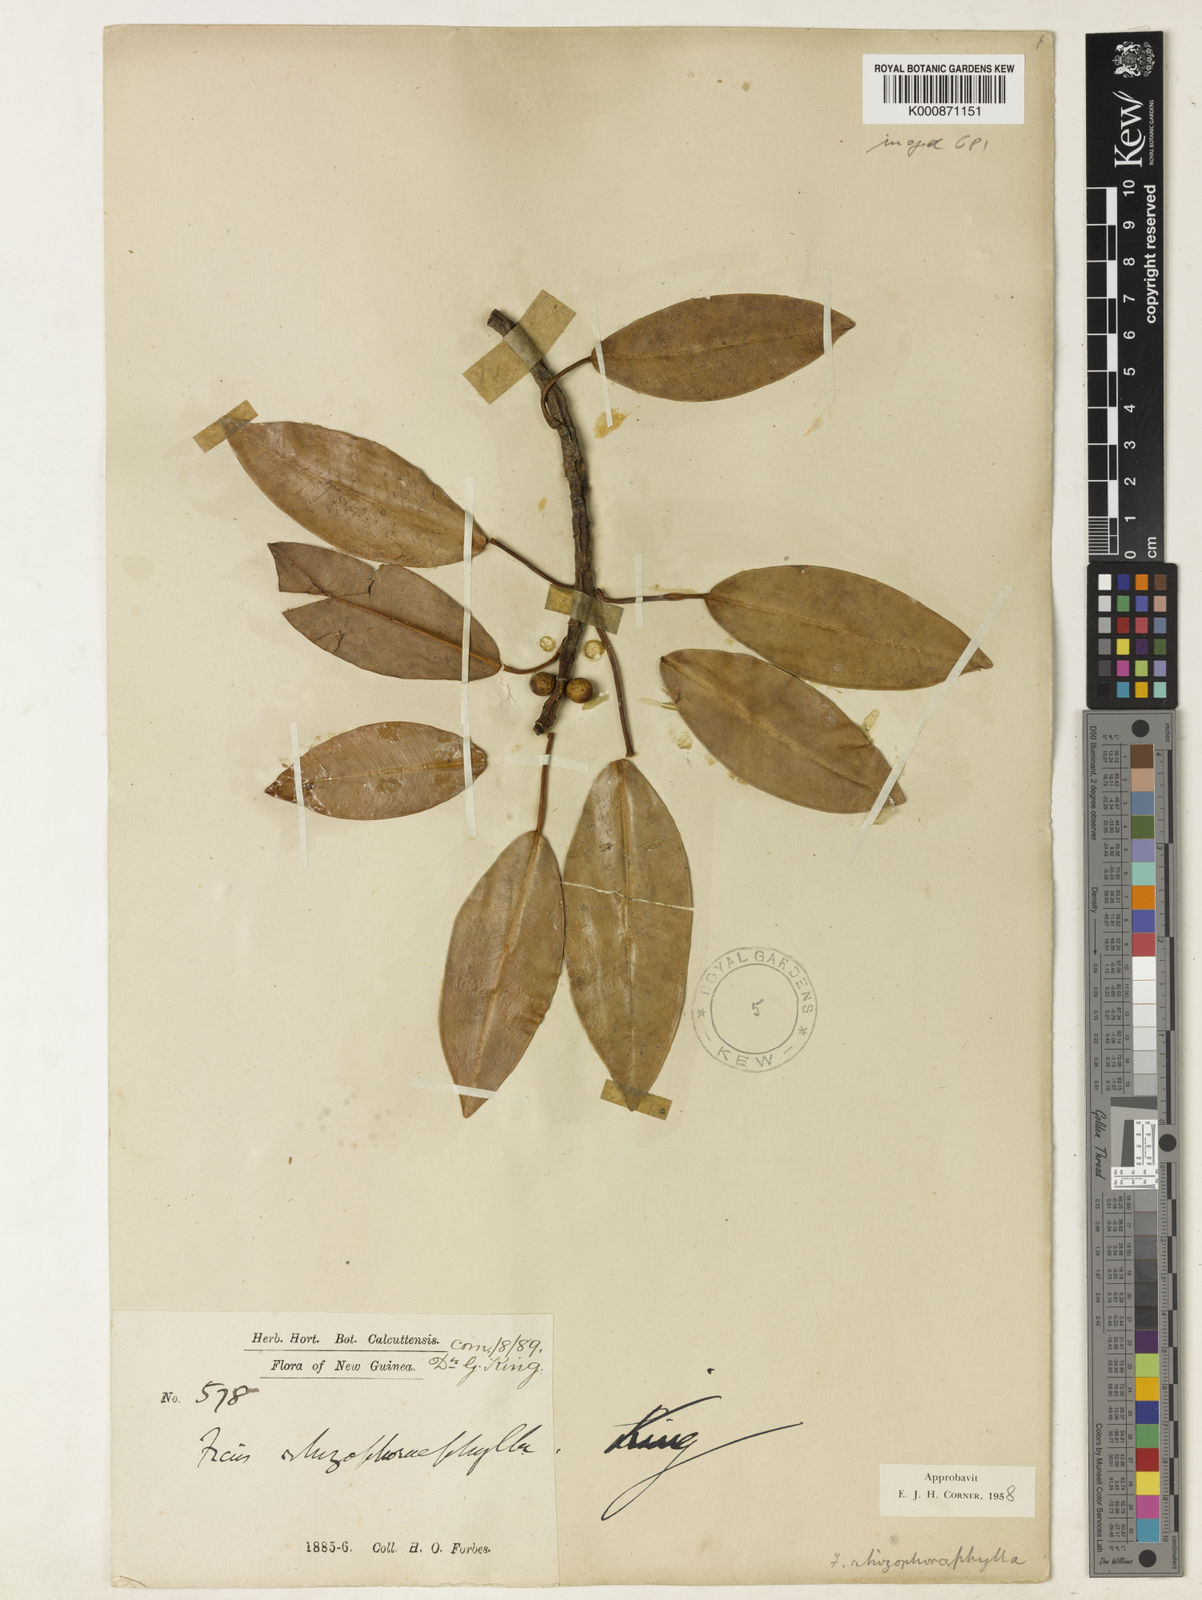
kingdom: Plantae
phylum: Tracheophyta
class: Magnoliopsida
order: Rosales
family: Moraceae
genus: Ficus
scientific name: Ficus
